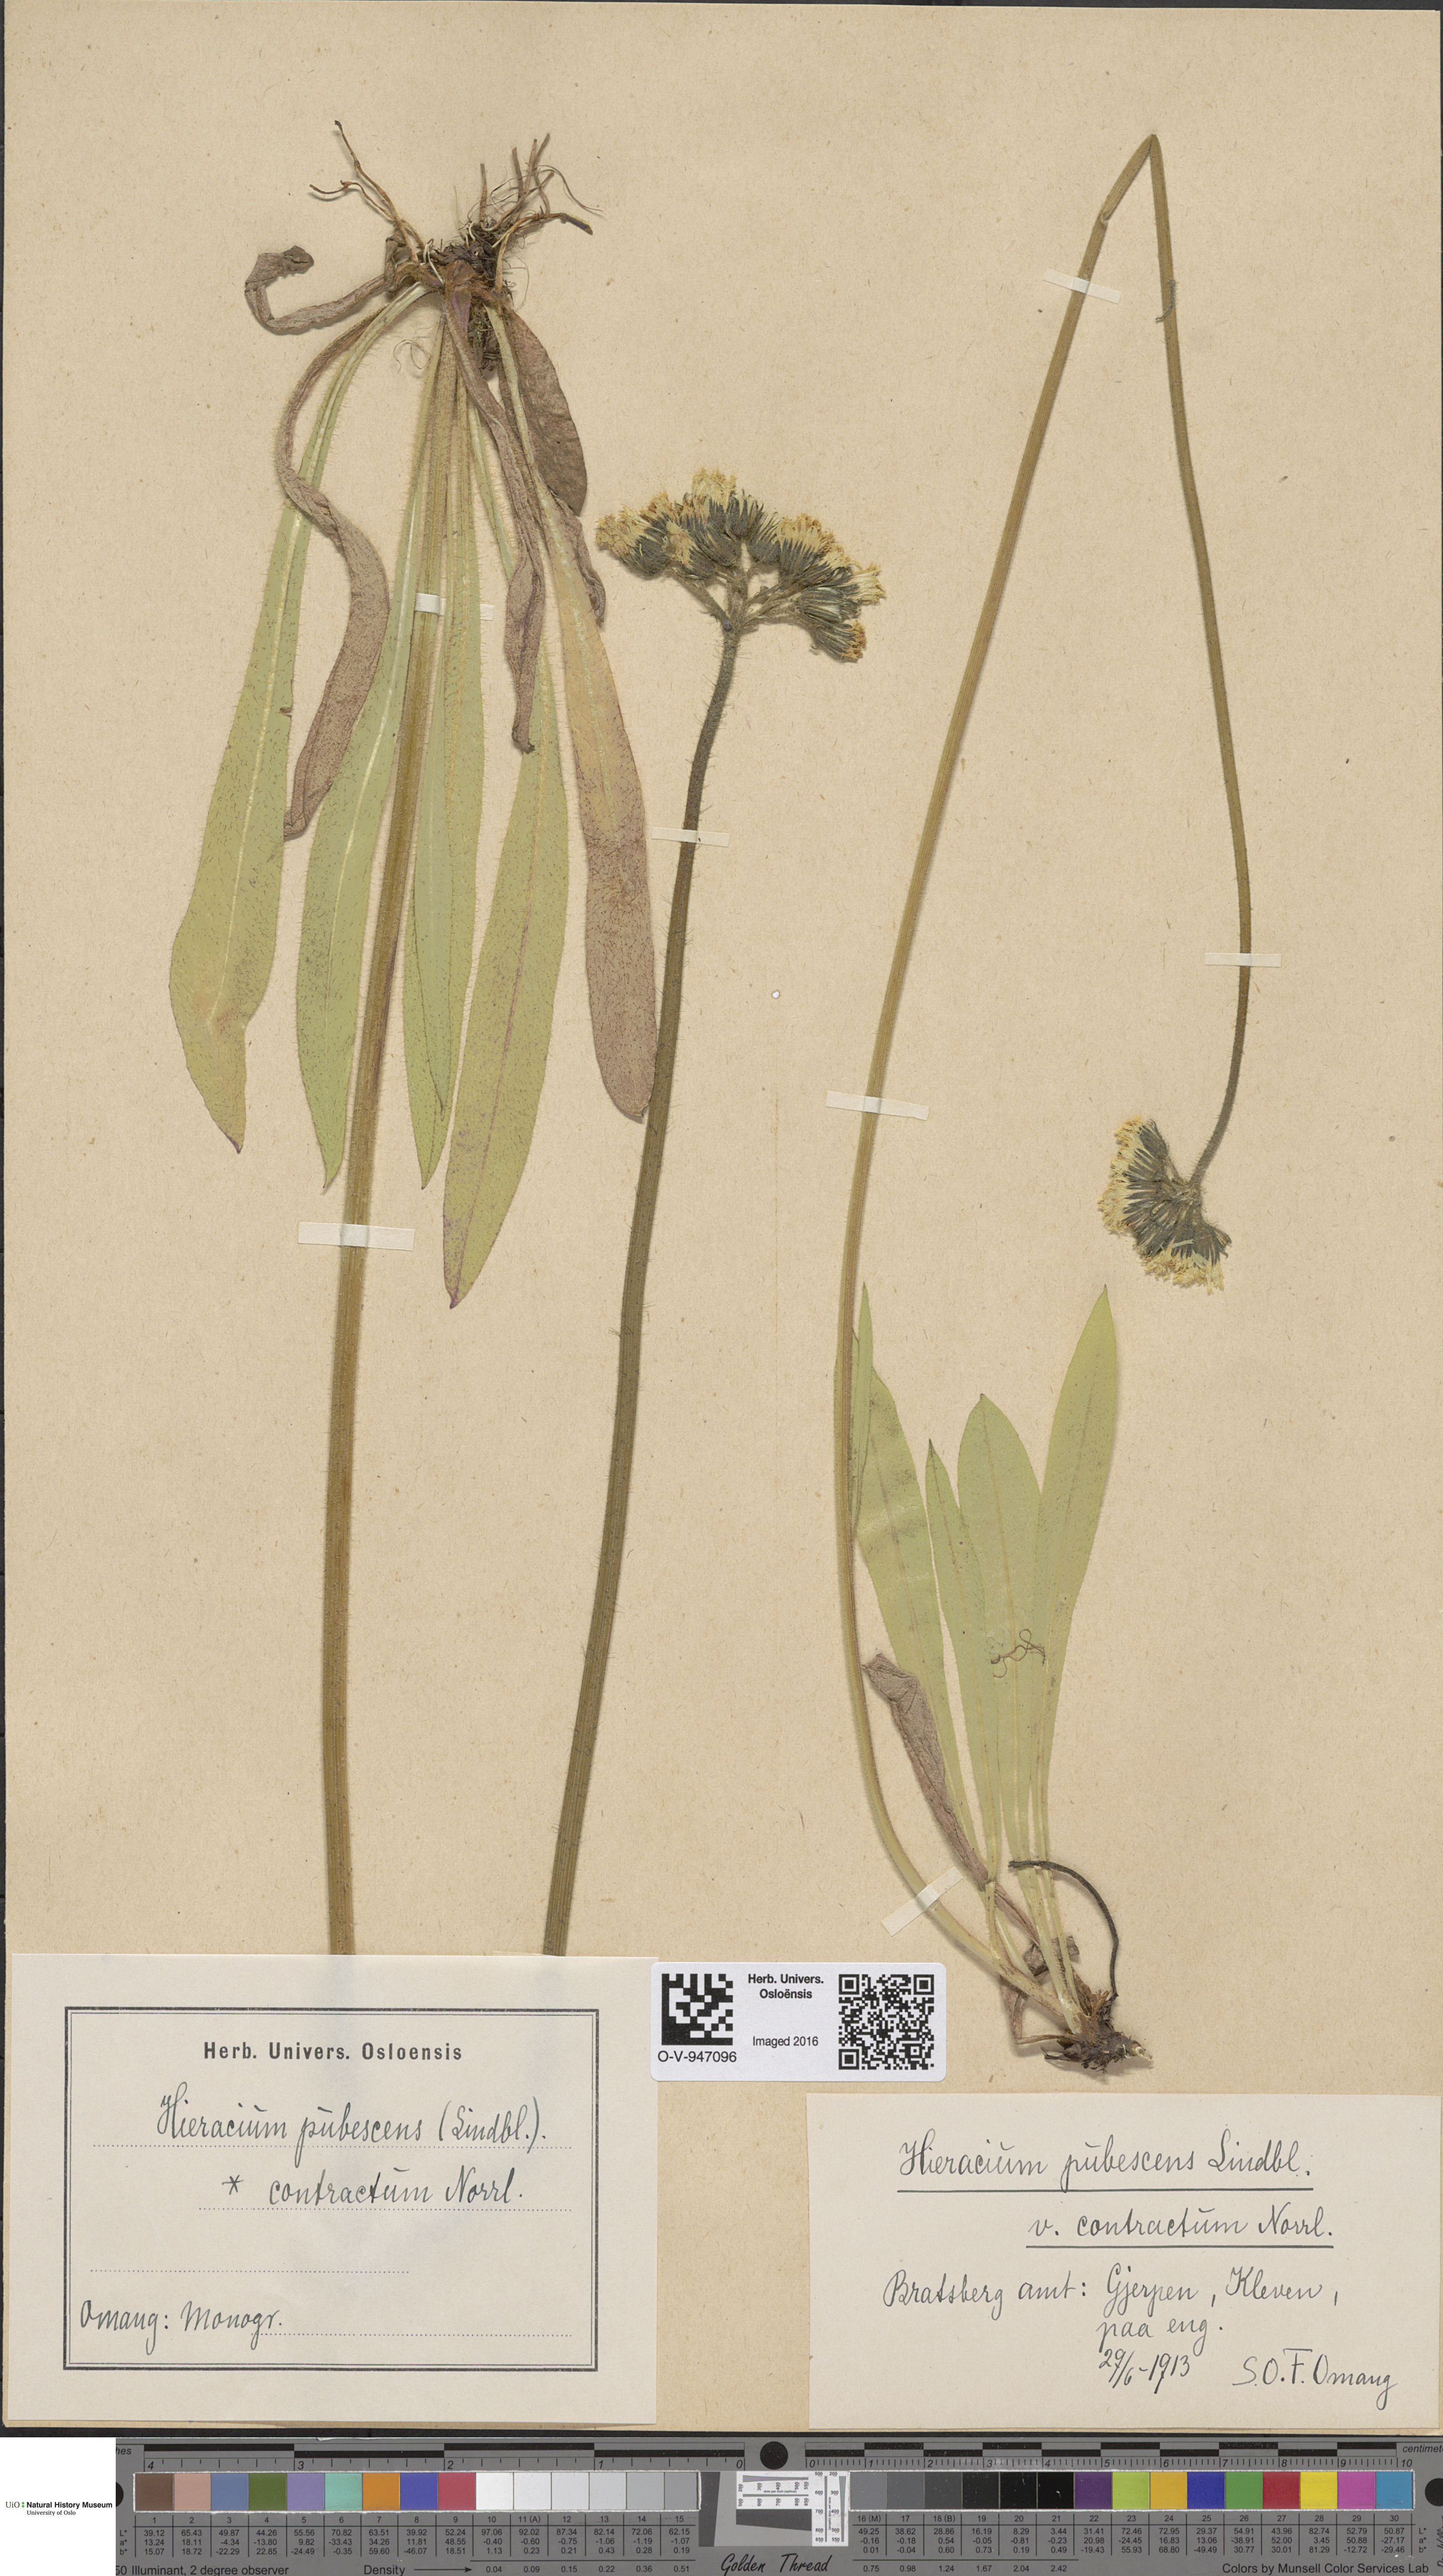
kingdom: Plantae
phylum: Tracheophyta
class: Magnoliopsida
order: Asterales
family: Asteraceae
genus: Pilosella
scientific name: Pilosella cymosa
